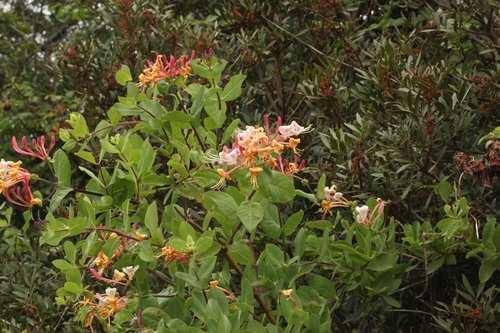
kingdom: Plantae
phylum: Tracheophyta
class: Magnoliopsida
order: Dipsacales
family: Caprifoliaceae
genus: Lonicera
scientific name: Lonicera etrusca
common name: Etruscan honeysuckle
